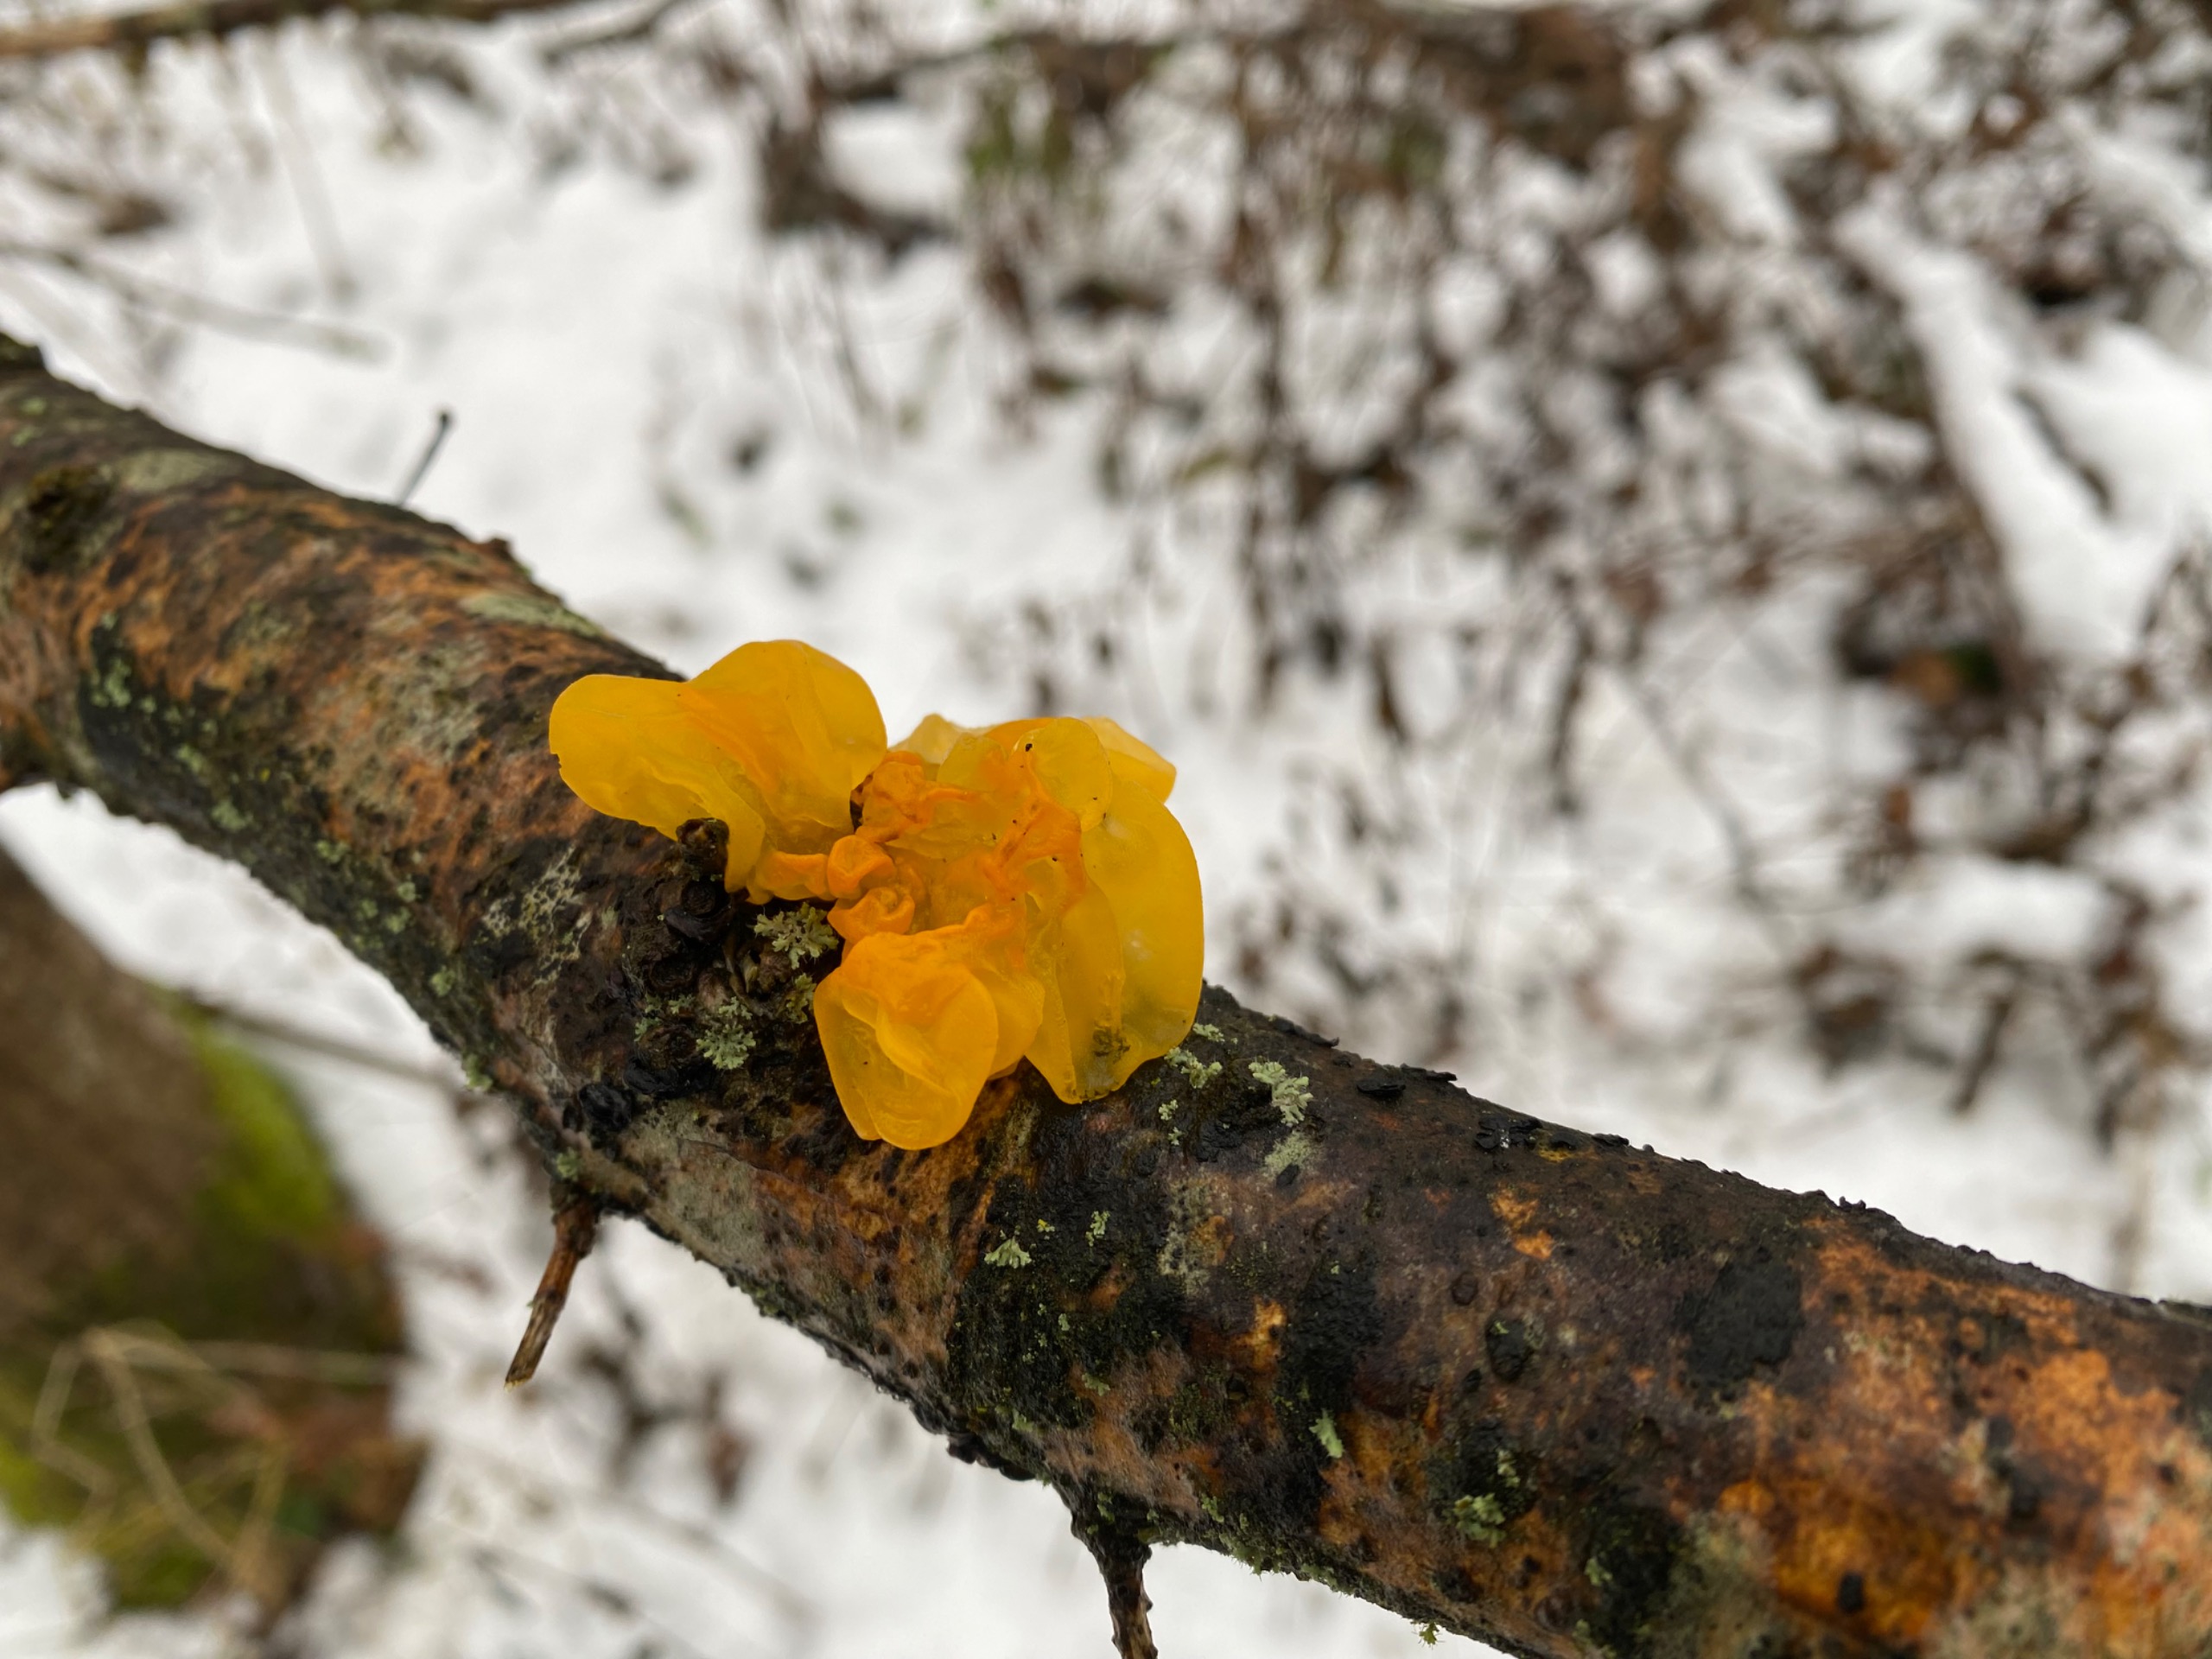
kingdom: Fungi
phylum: Basidiomycota
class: Tremellomycetes
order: Tremellales
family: Tremellaceae
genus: Tremella
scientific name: Tremella mesenterica
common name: Gul bævresvamp
